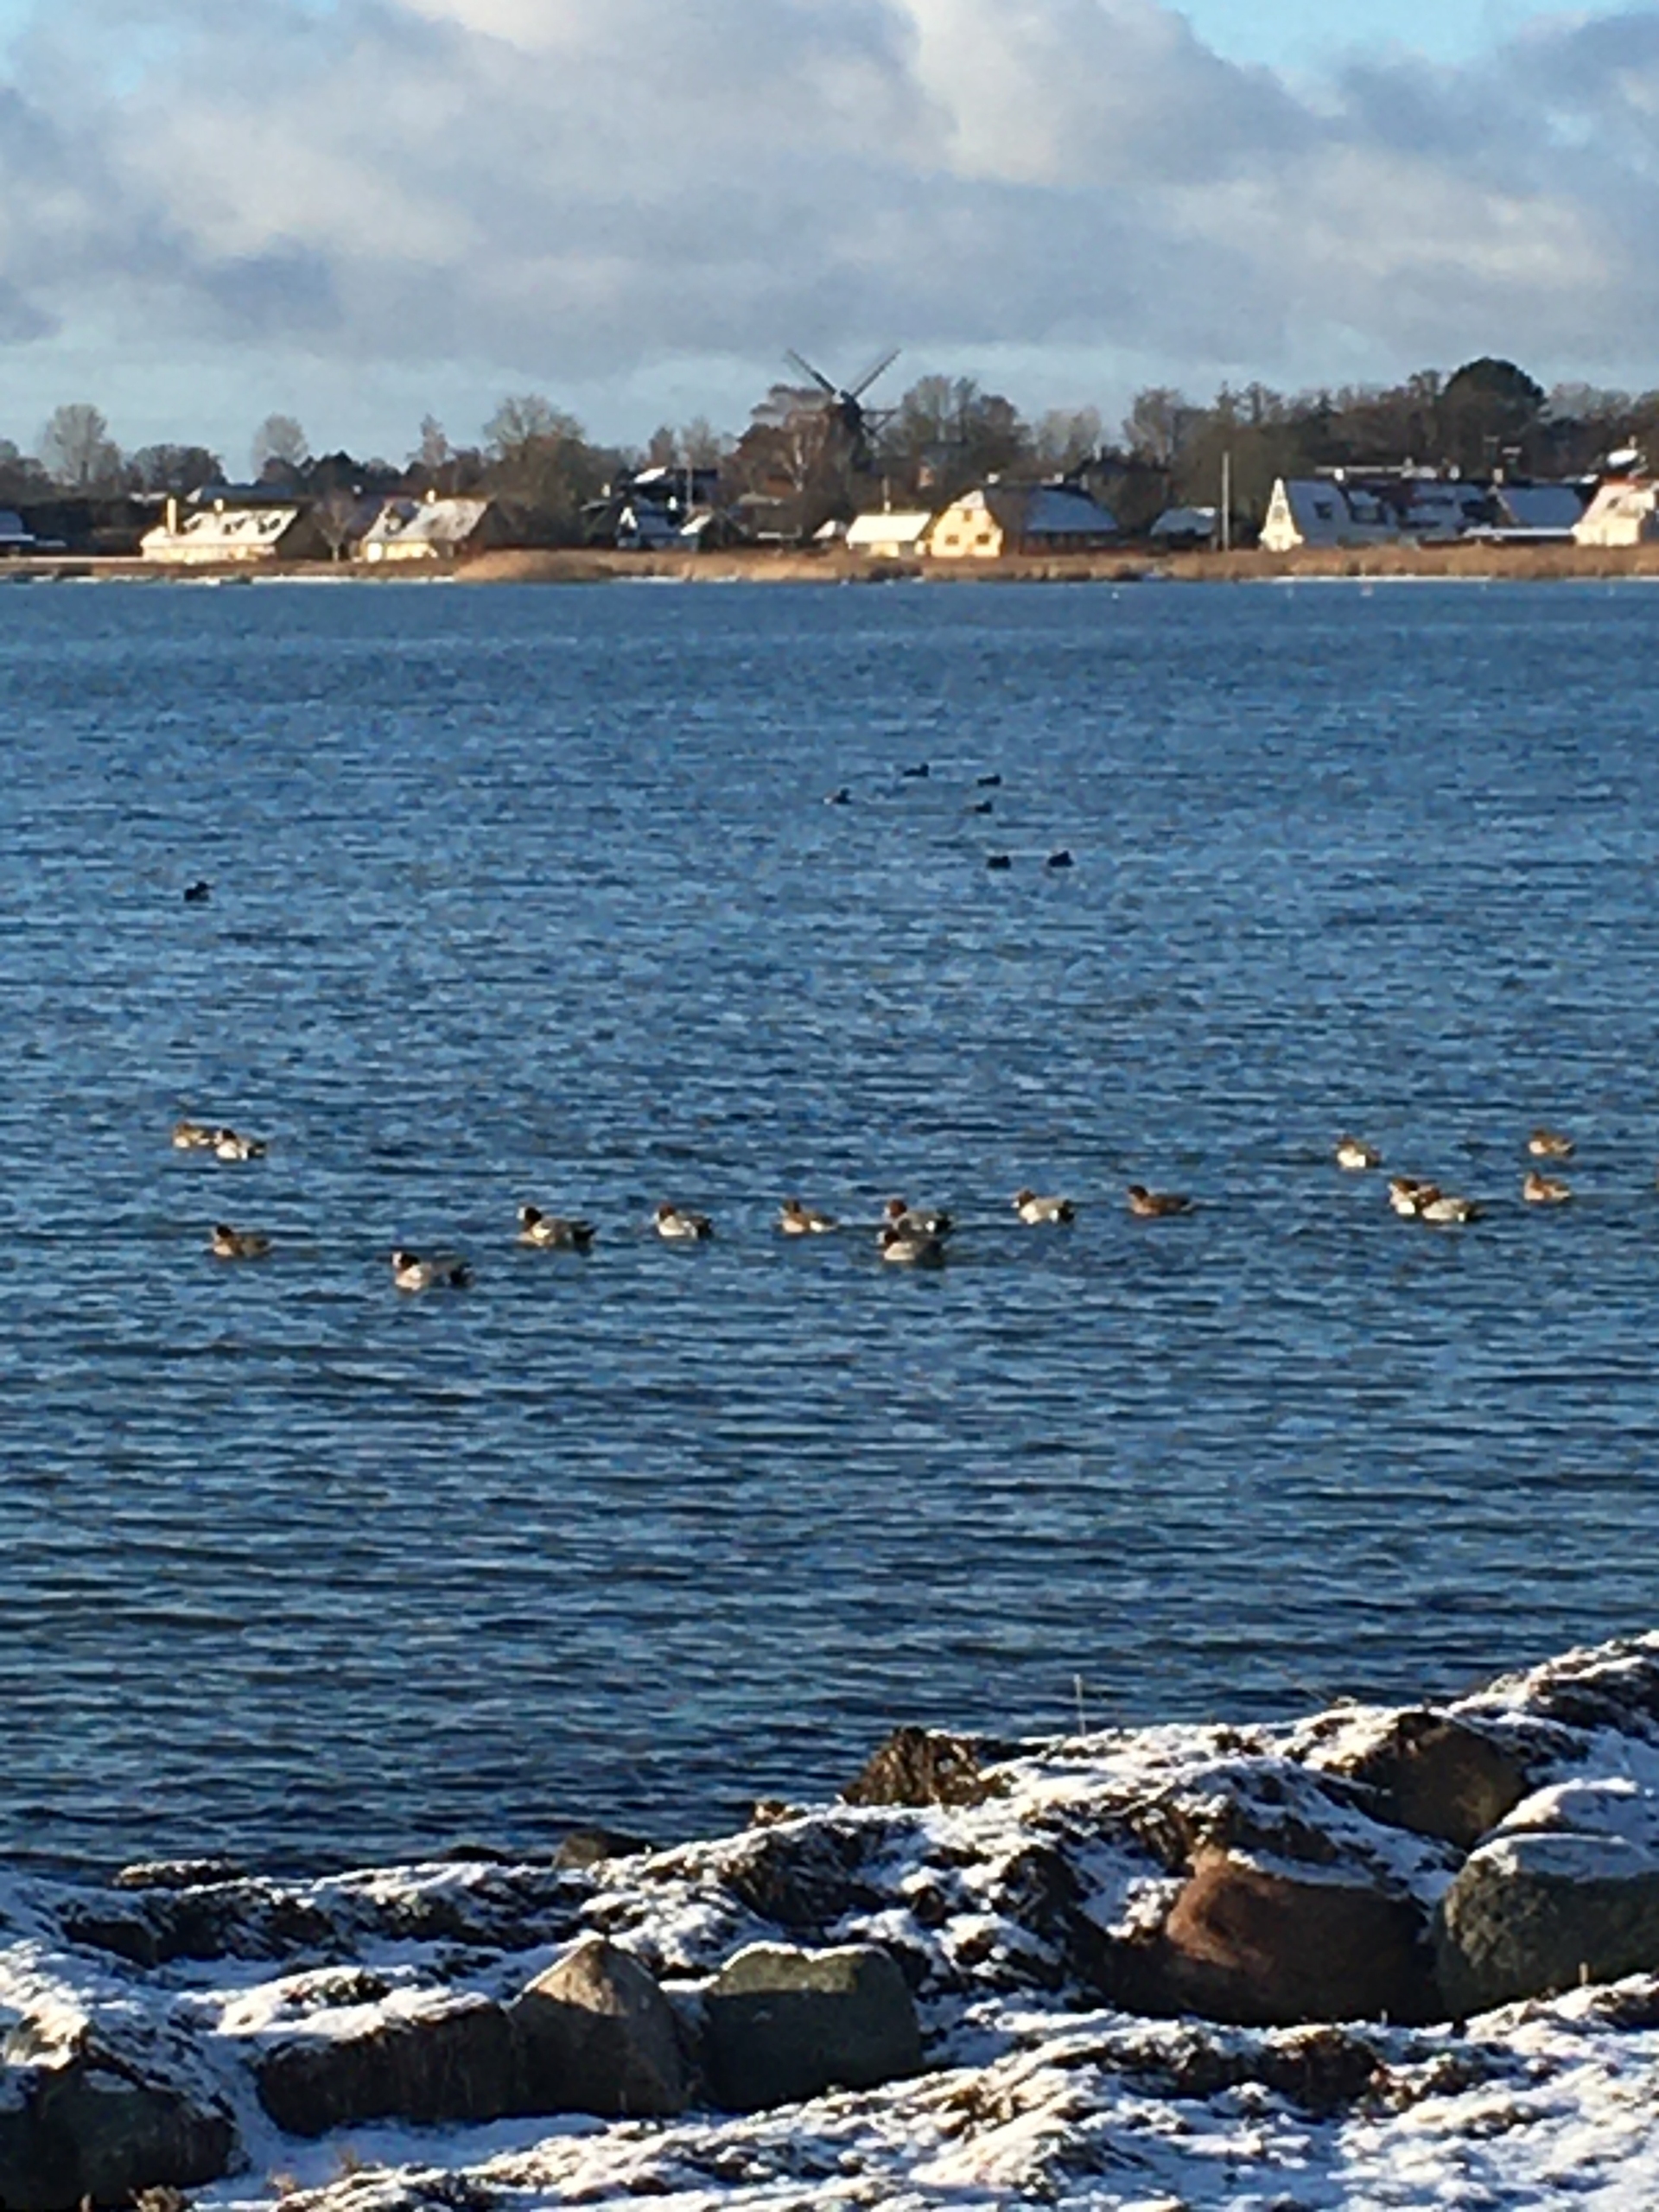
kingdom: Animalia
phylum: Chordata
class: Aves
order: Anseriformes
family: Anatidae
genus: Mareca
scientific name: Mareca penelope
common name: Pibeand
